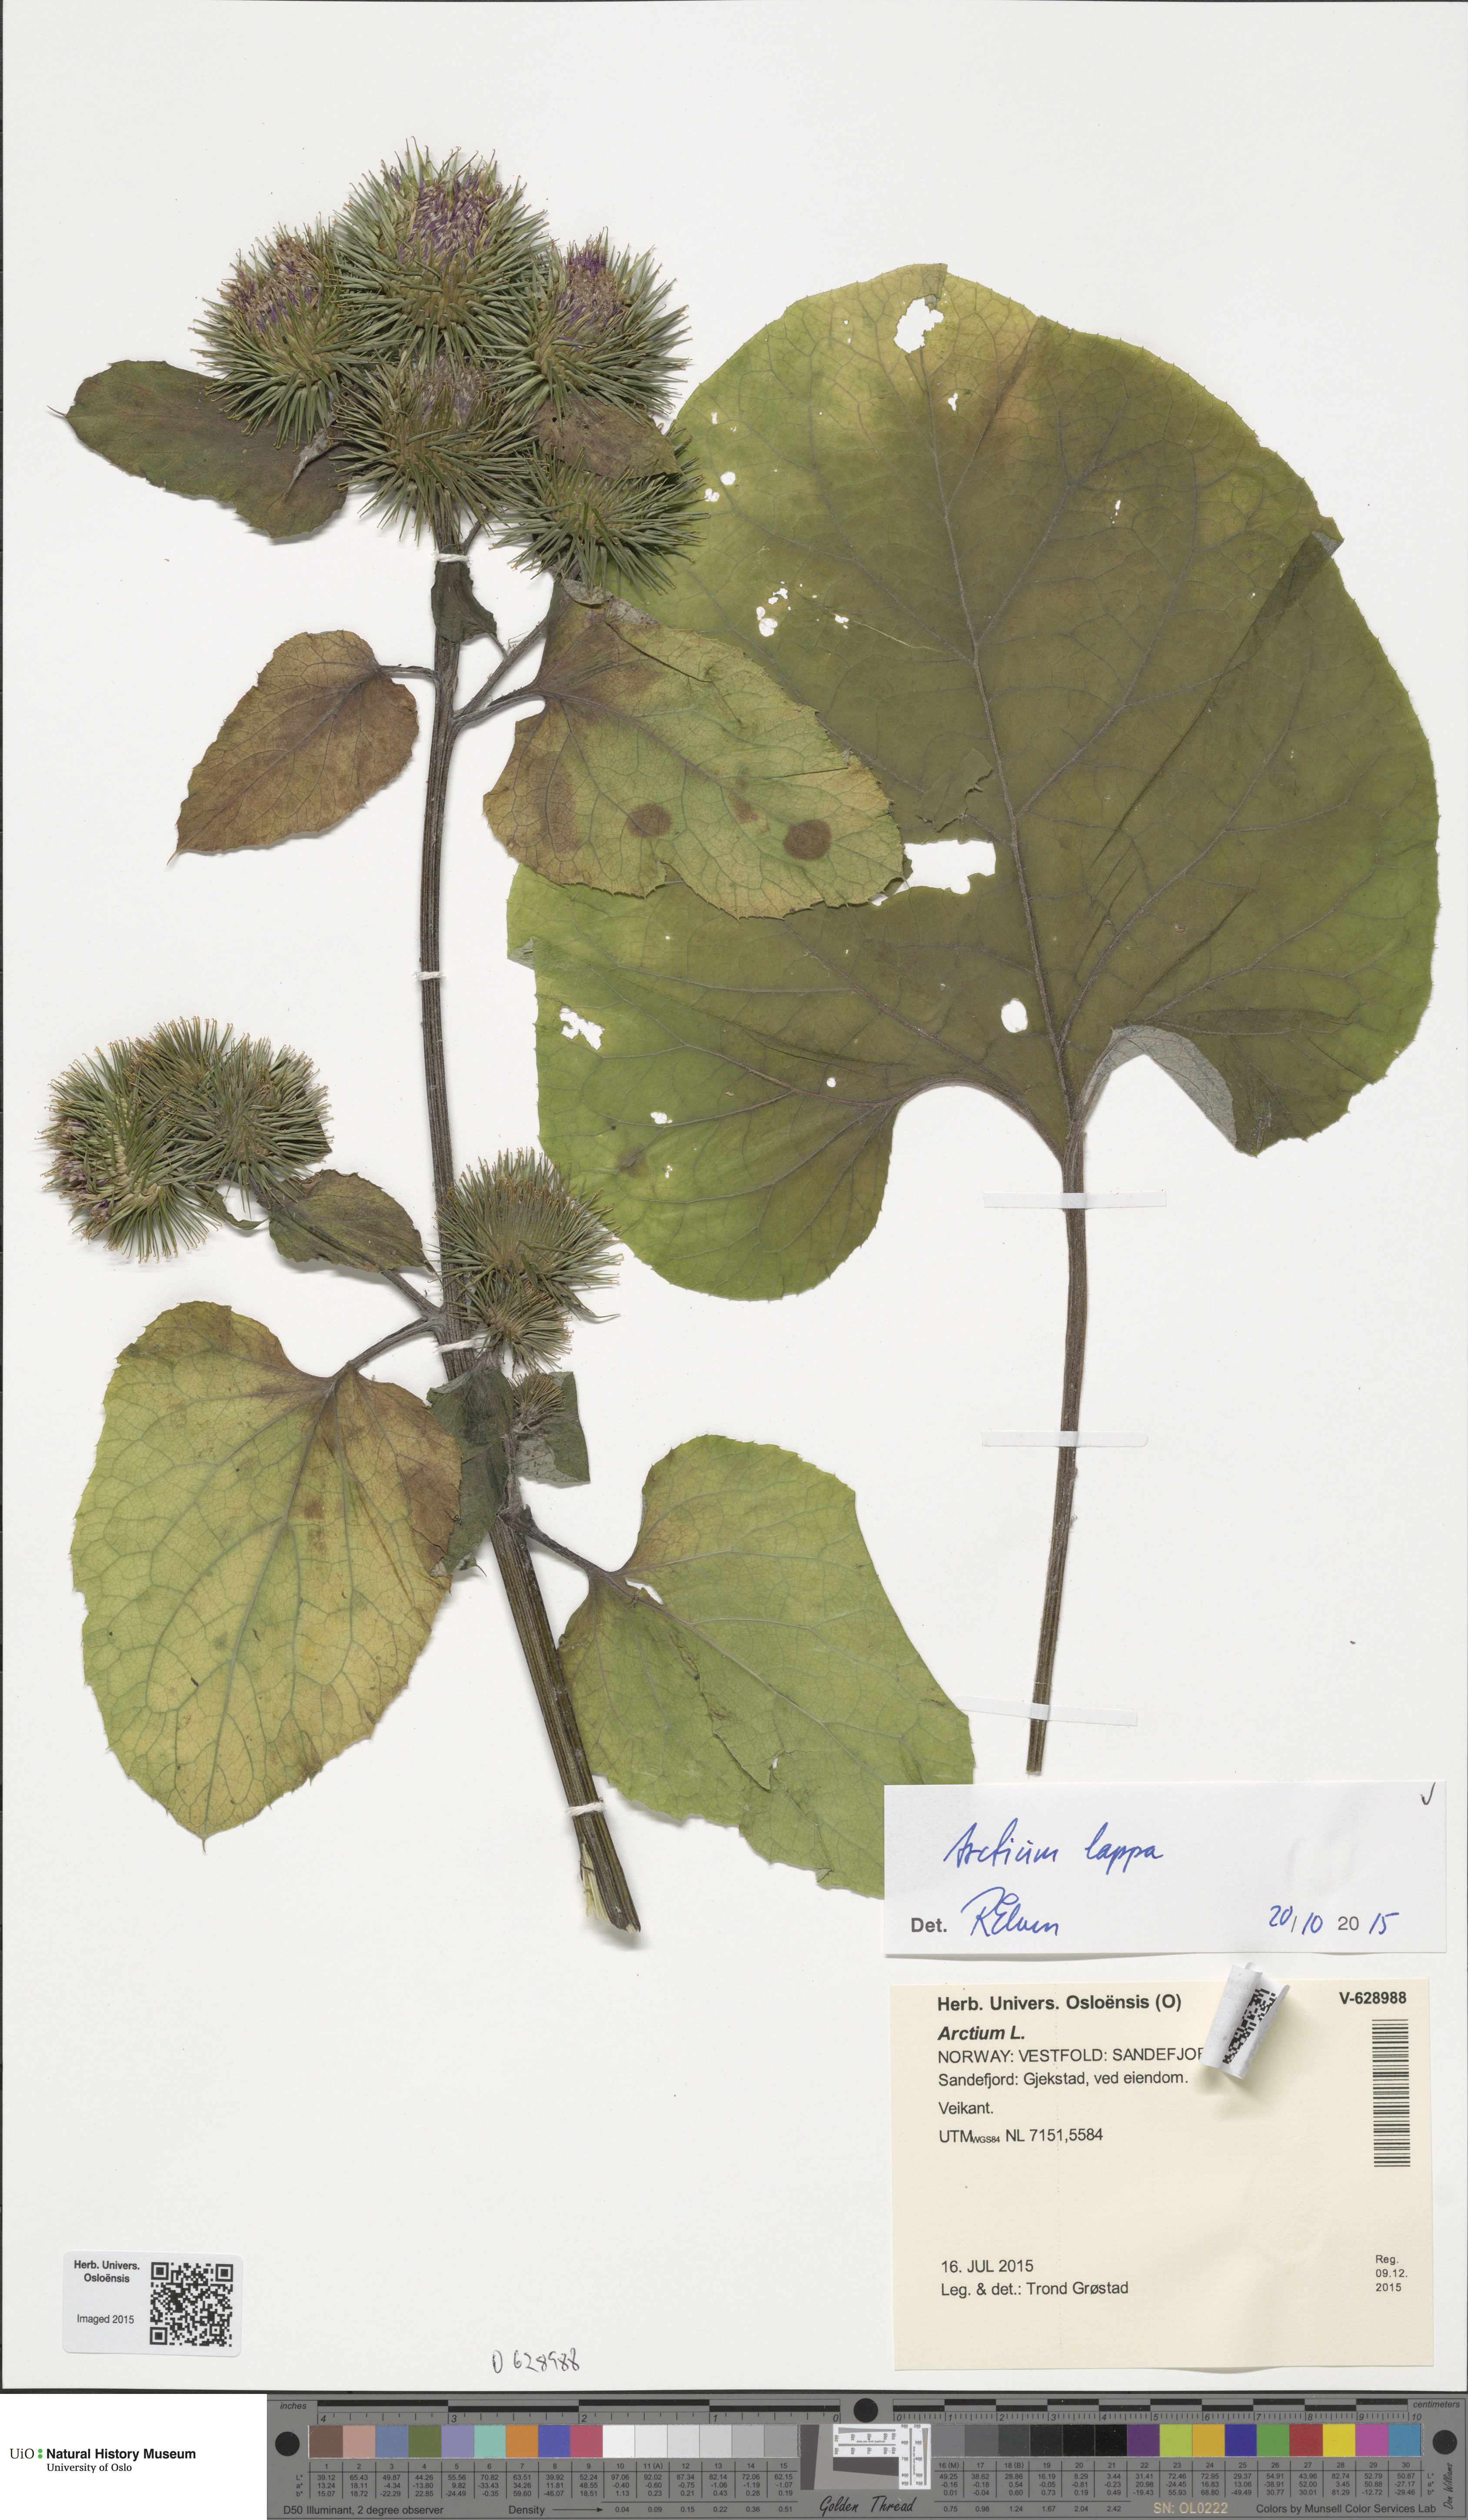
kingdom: Plantae
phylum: Tracheophyta
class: Magnoliopsida
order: Asterales
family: Asteraceae
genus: Arctium
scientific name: Arctium lappa
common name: Greater burdock
